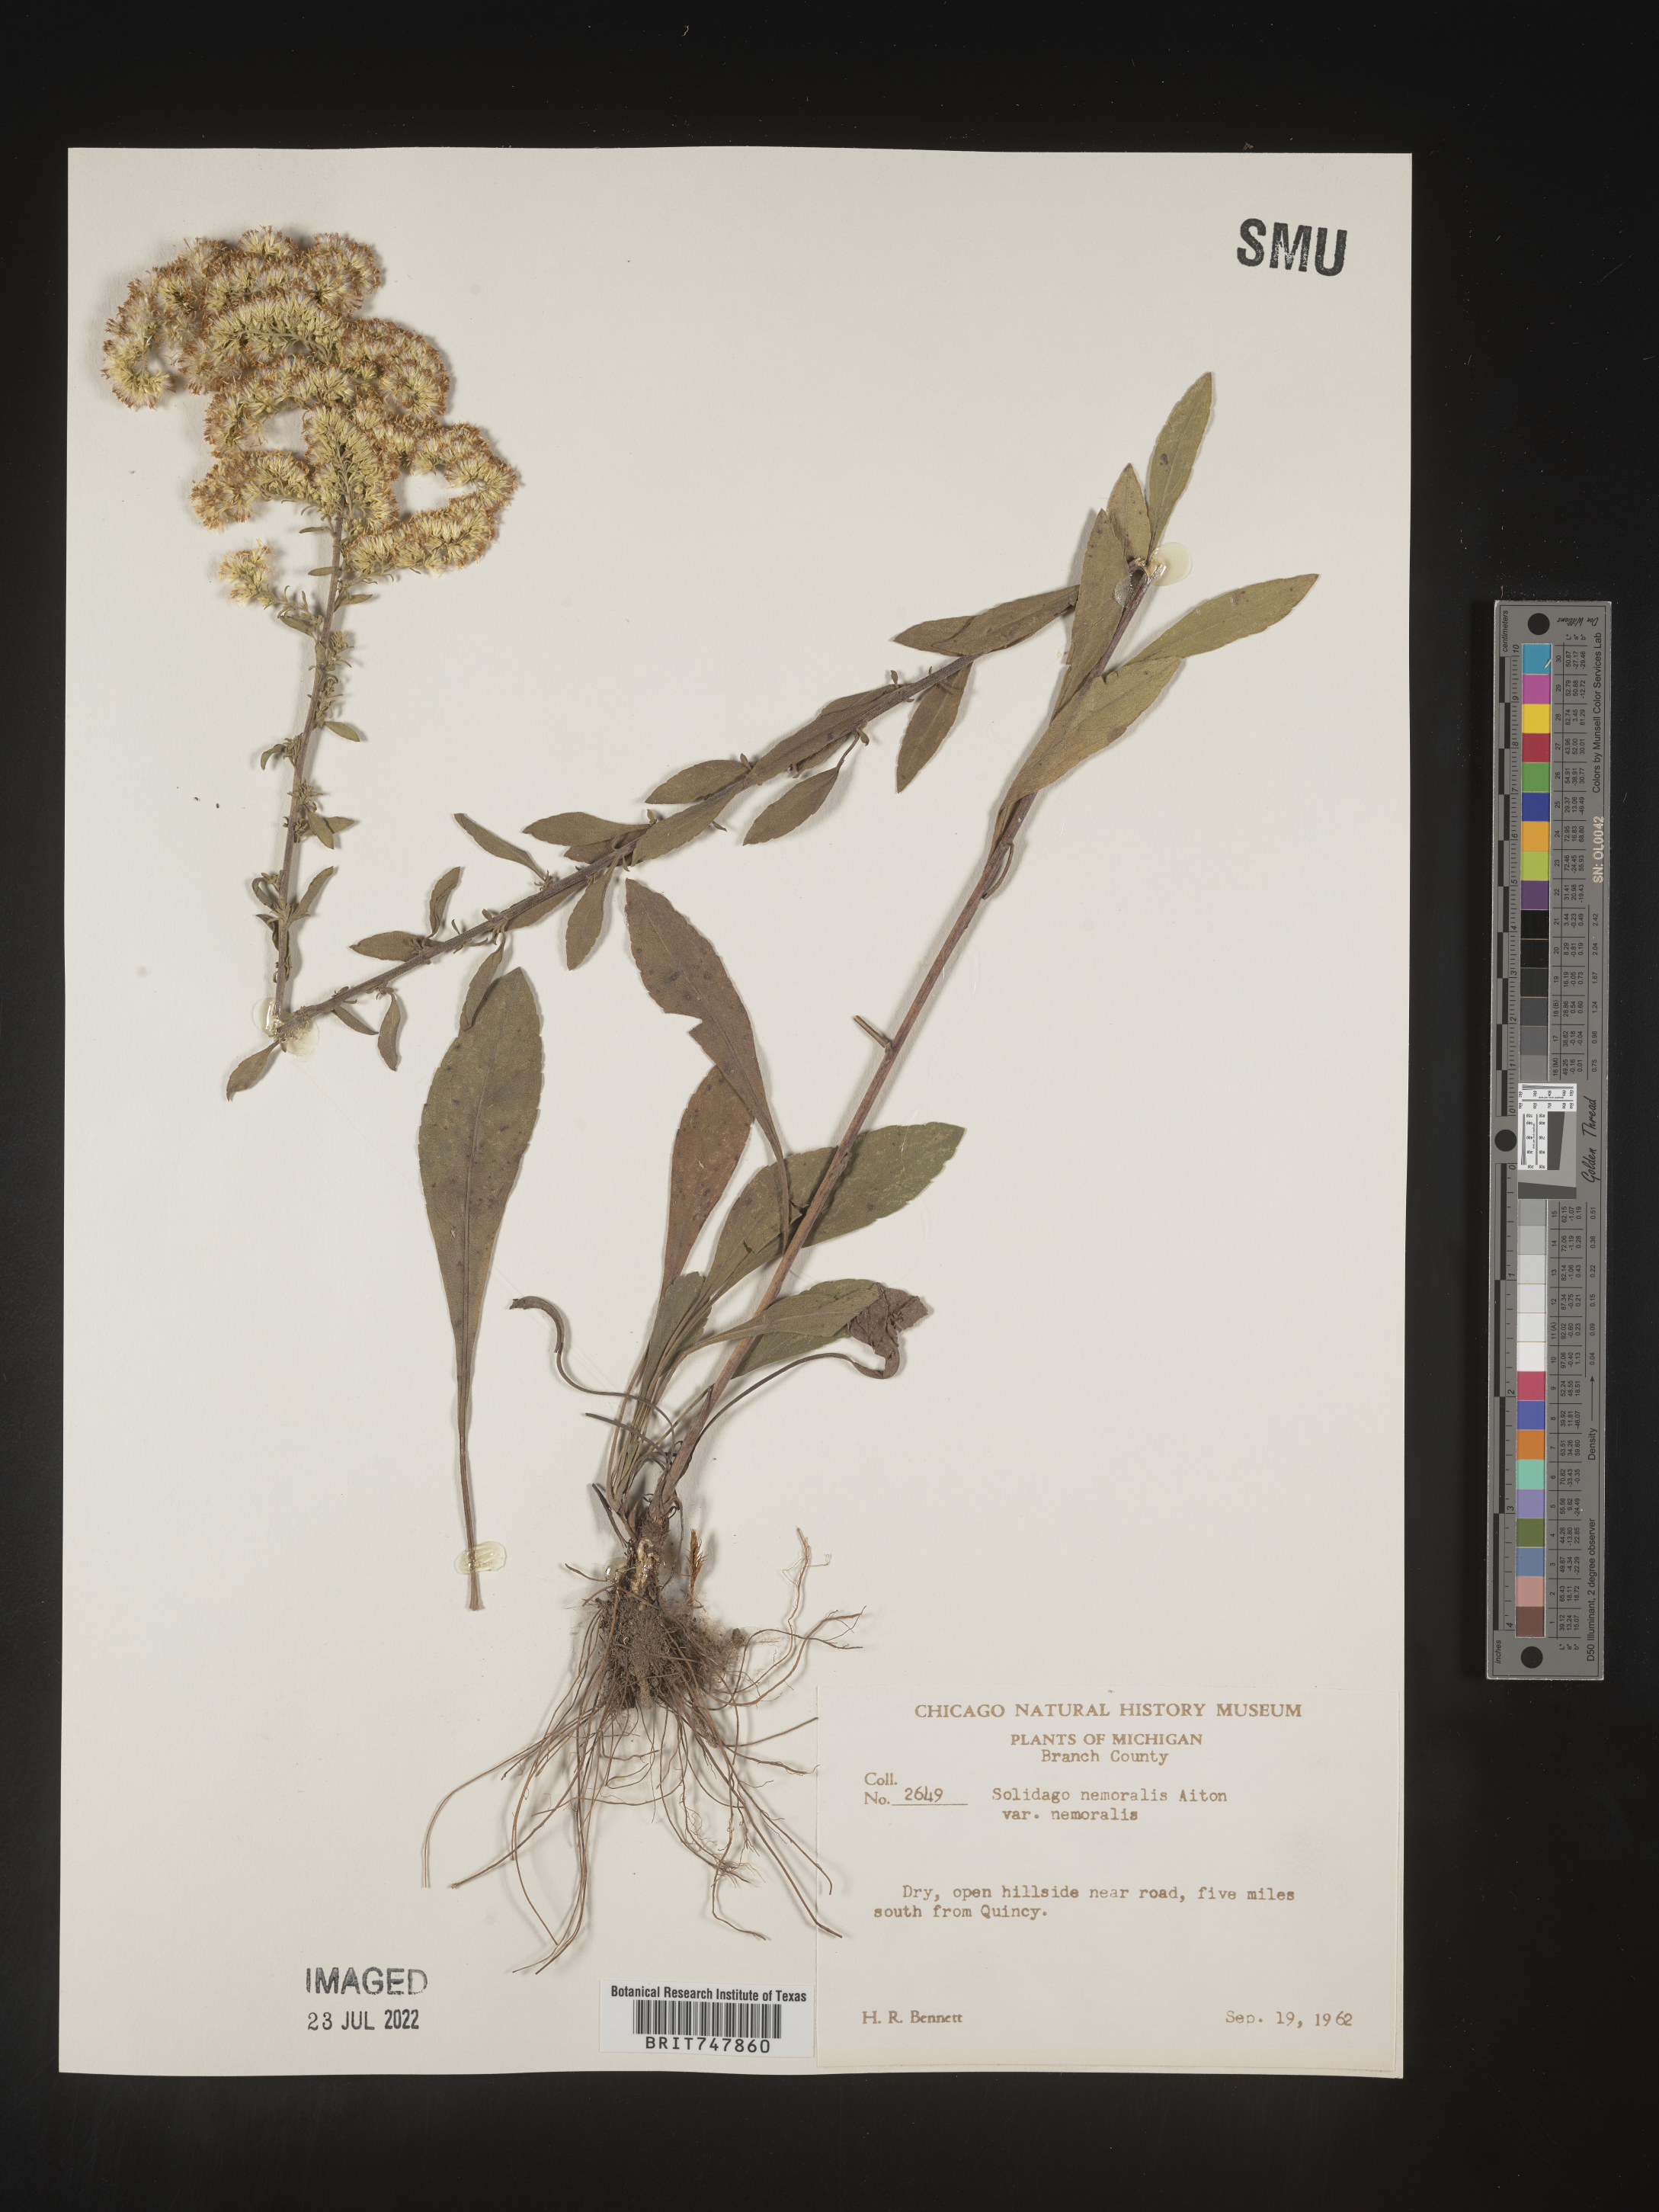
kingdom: Plantae
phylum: Tracheophyta
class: Magnoliopsida
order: Asterales
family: Asteraceae
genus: Solidago
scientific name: Solidago nemoralis
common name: Grey goldenrod
